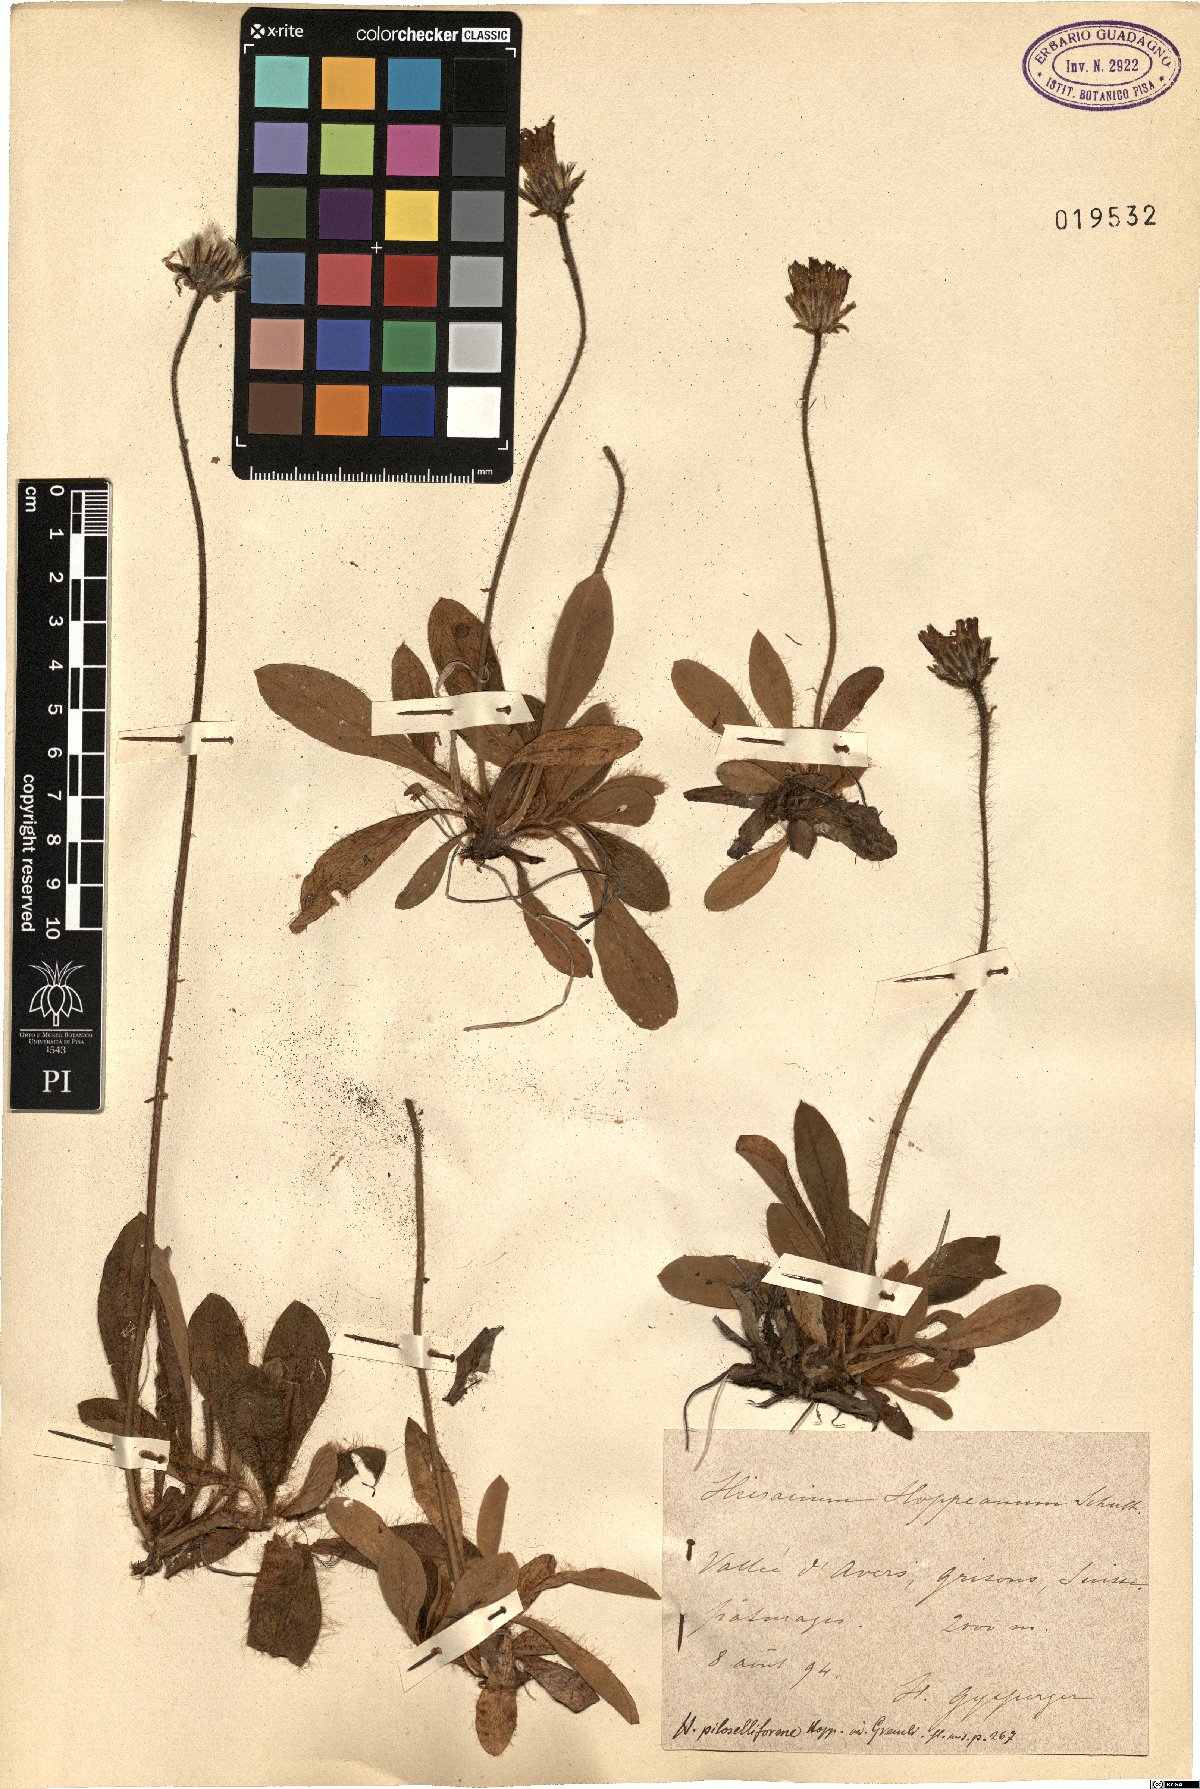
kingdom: Plantae
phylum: Tracheophyta
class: Magnoliopsida
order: Asterales
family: Asteraceae
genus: Pilosella
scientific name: Pilosella hoppeana
